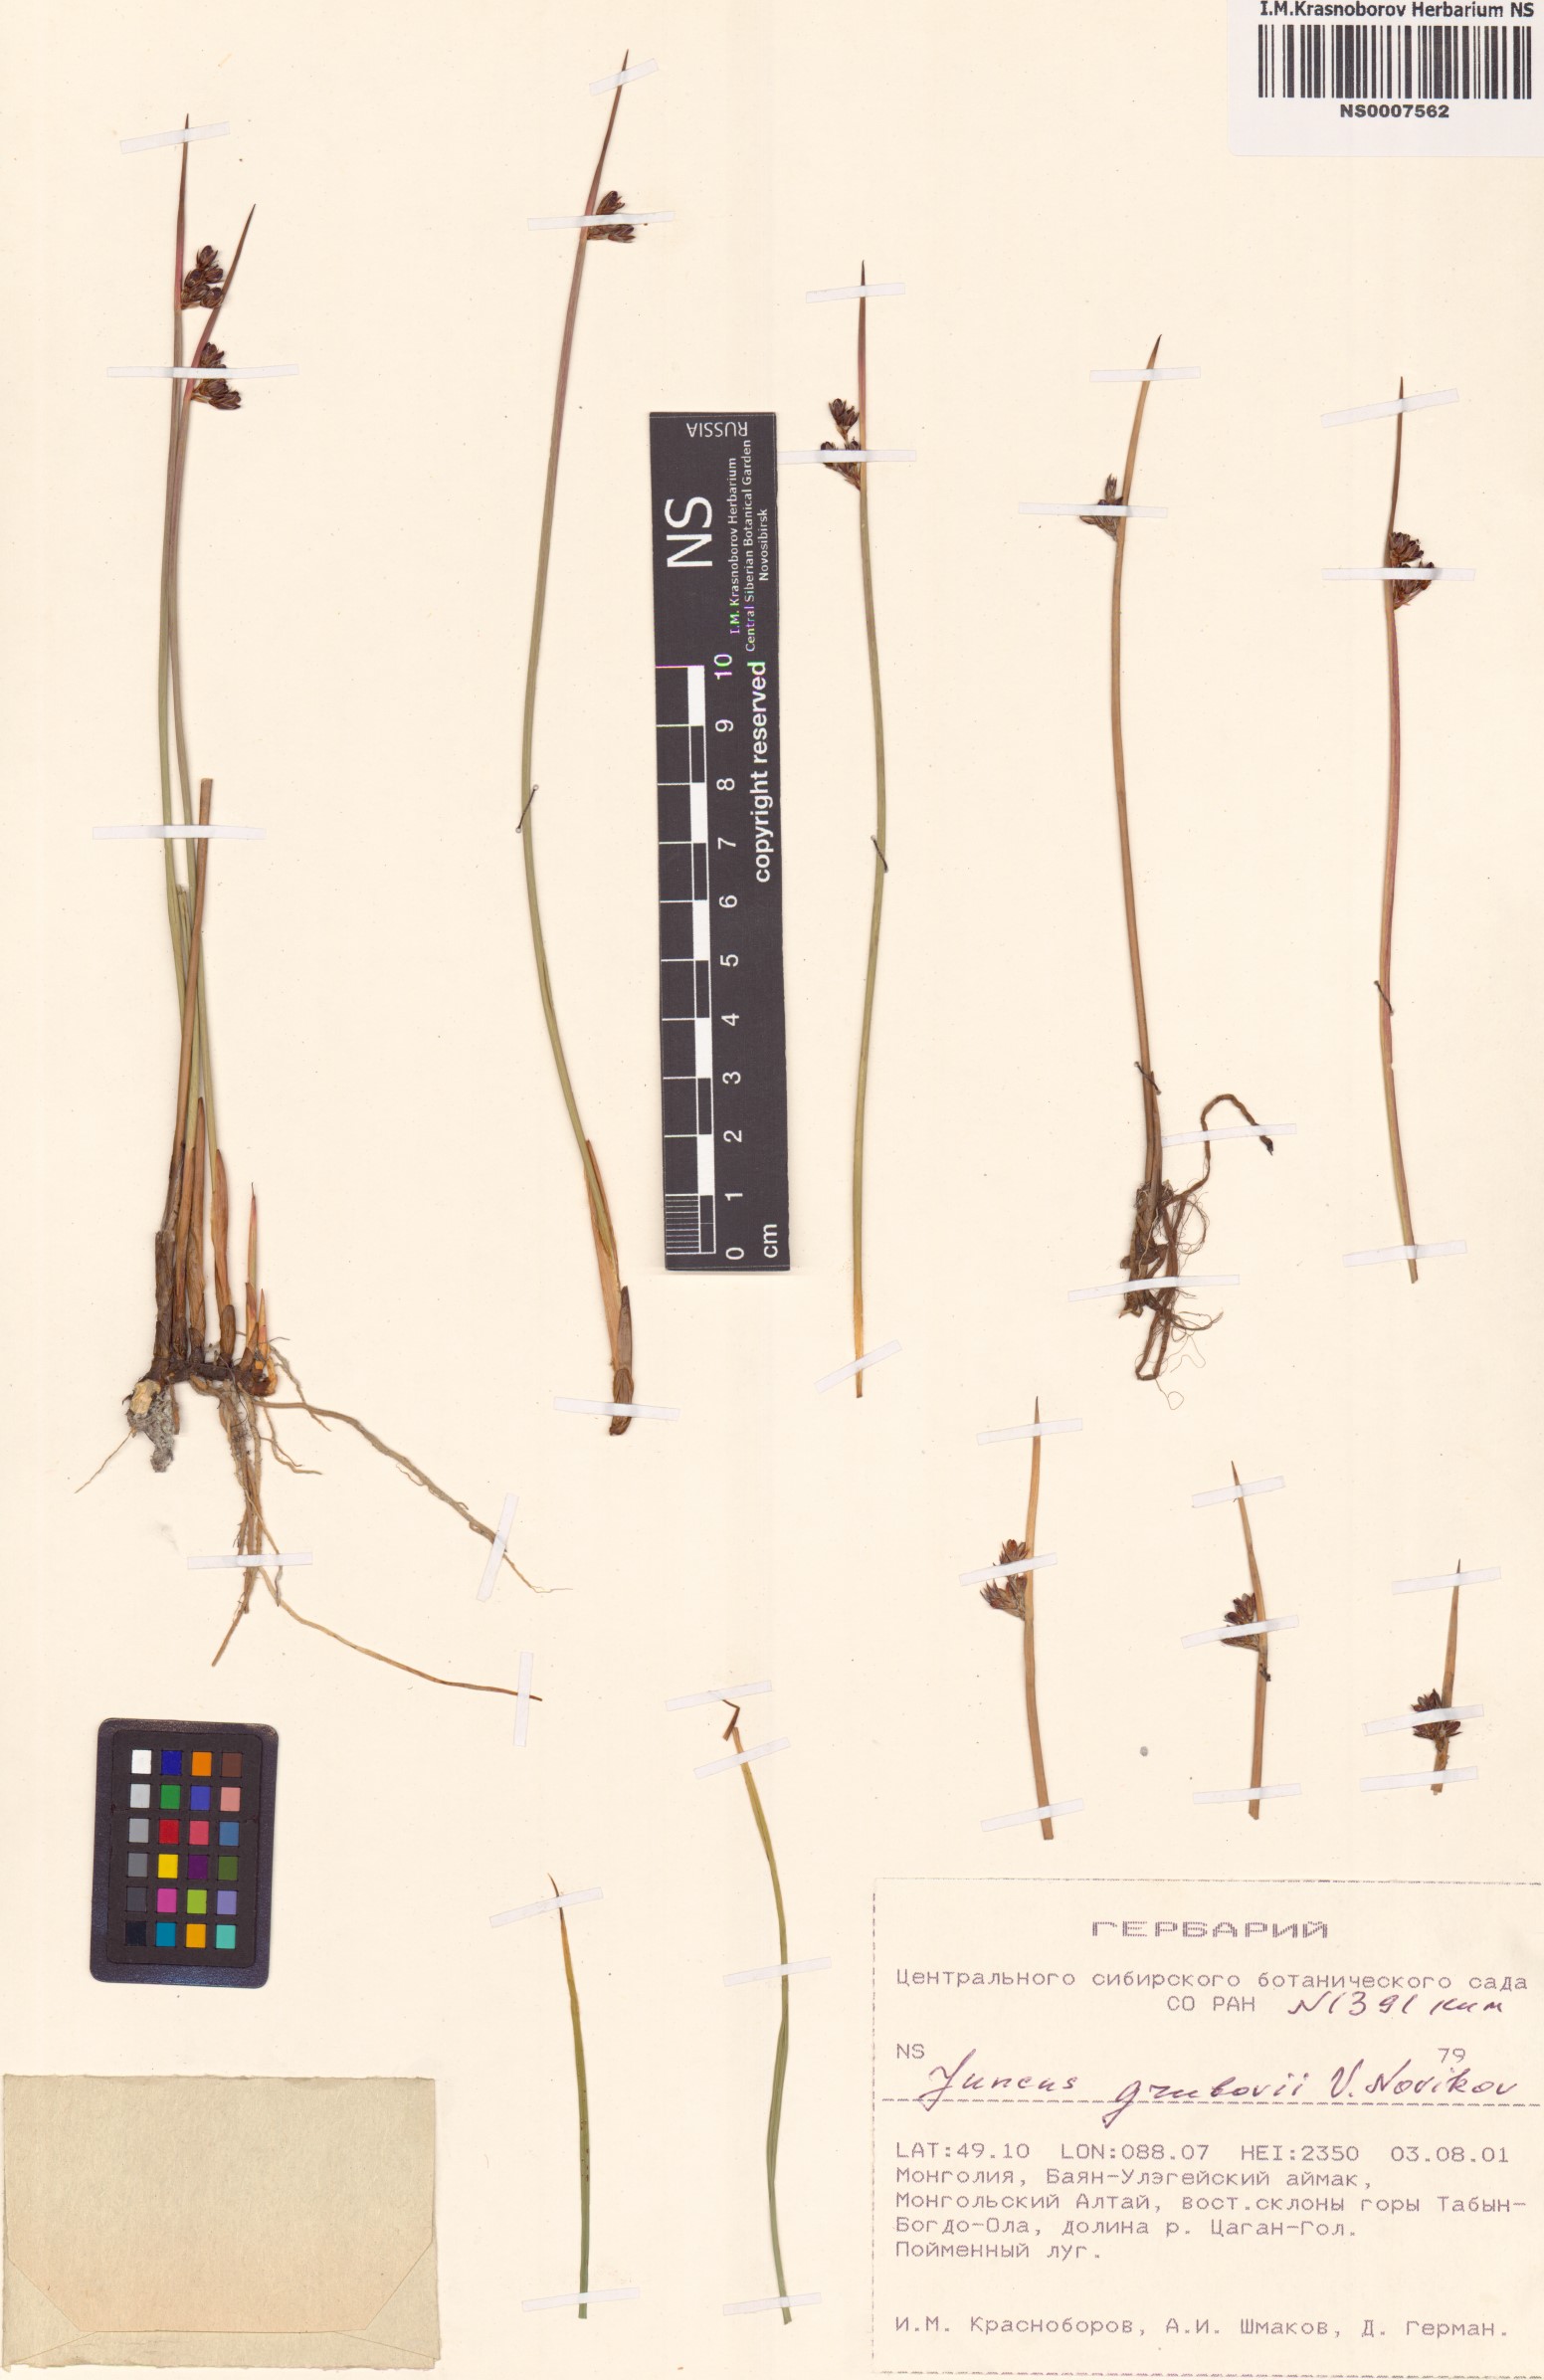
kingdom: Plantae
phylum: Tracheophyta
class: Liliopsida
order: Poales
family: Juncaceae
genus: Juncus
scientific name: Juncus arcticus
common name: Arctic rush
